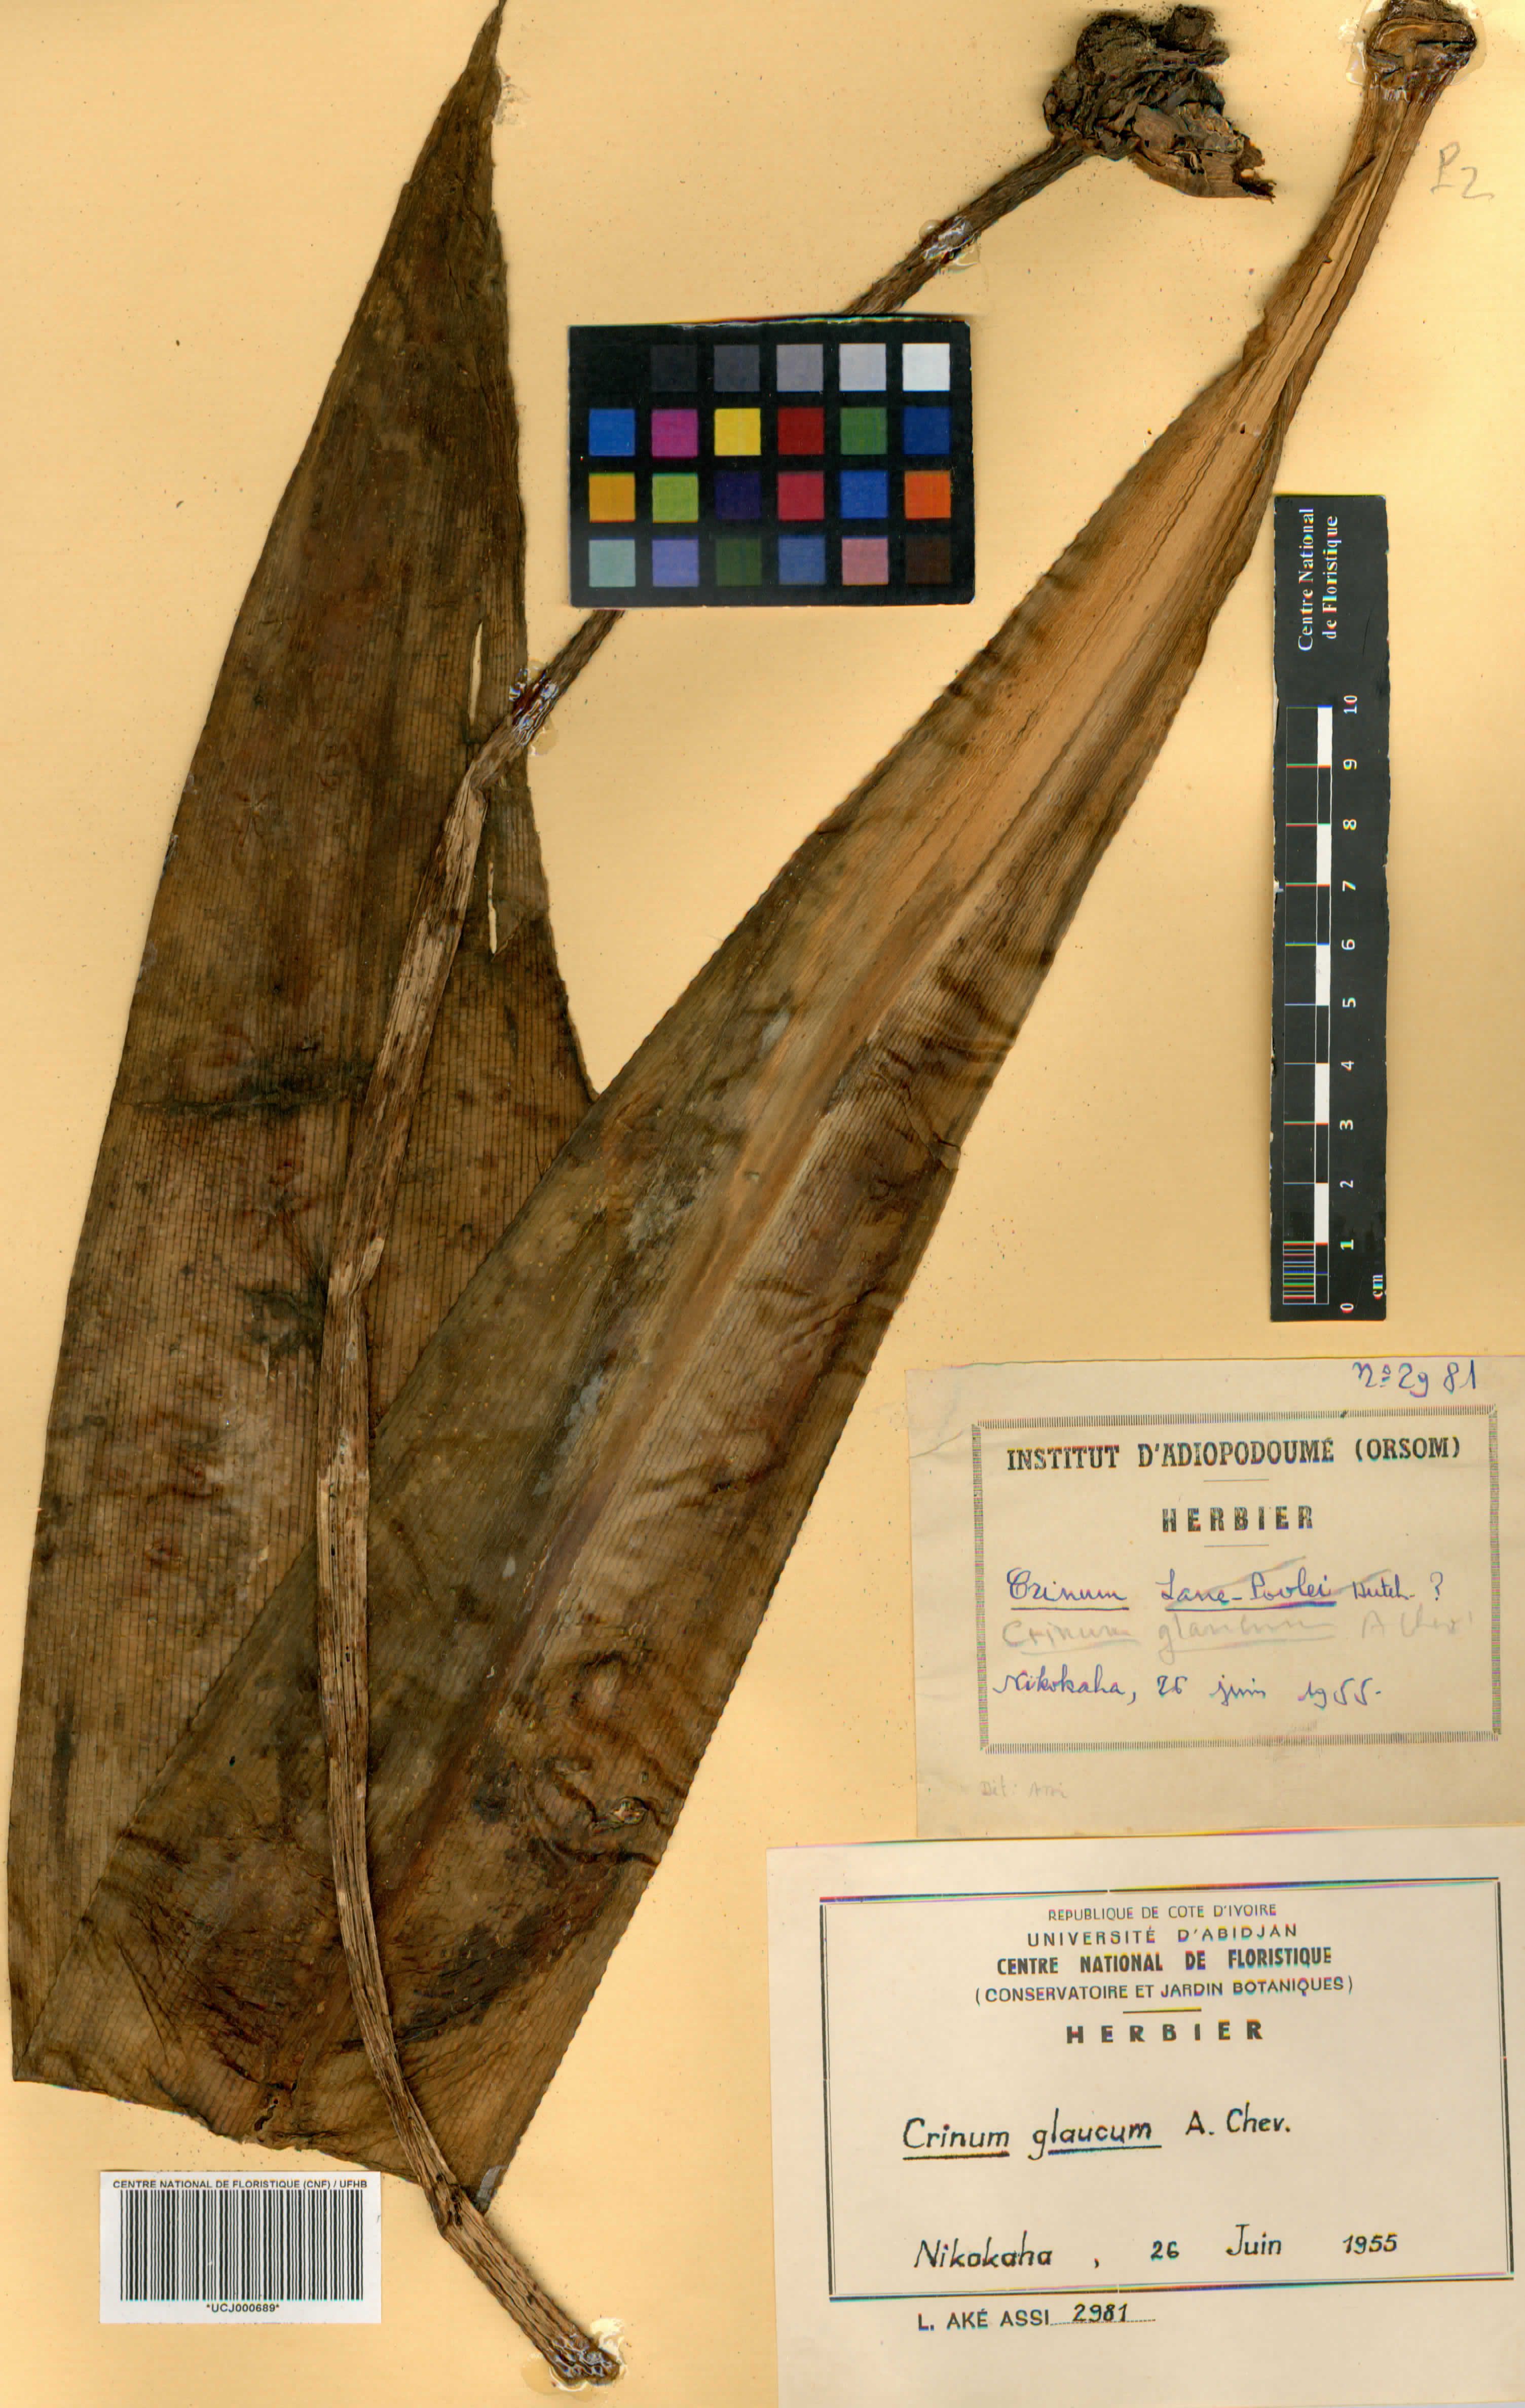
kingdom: Plantae
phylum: Tracheophyta
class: Liliopsida
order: Asparagales
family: Amaryllidaceae
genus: Crinum
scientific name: Crinum glaucum
